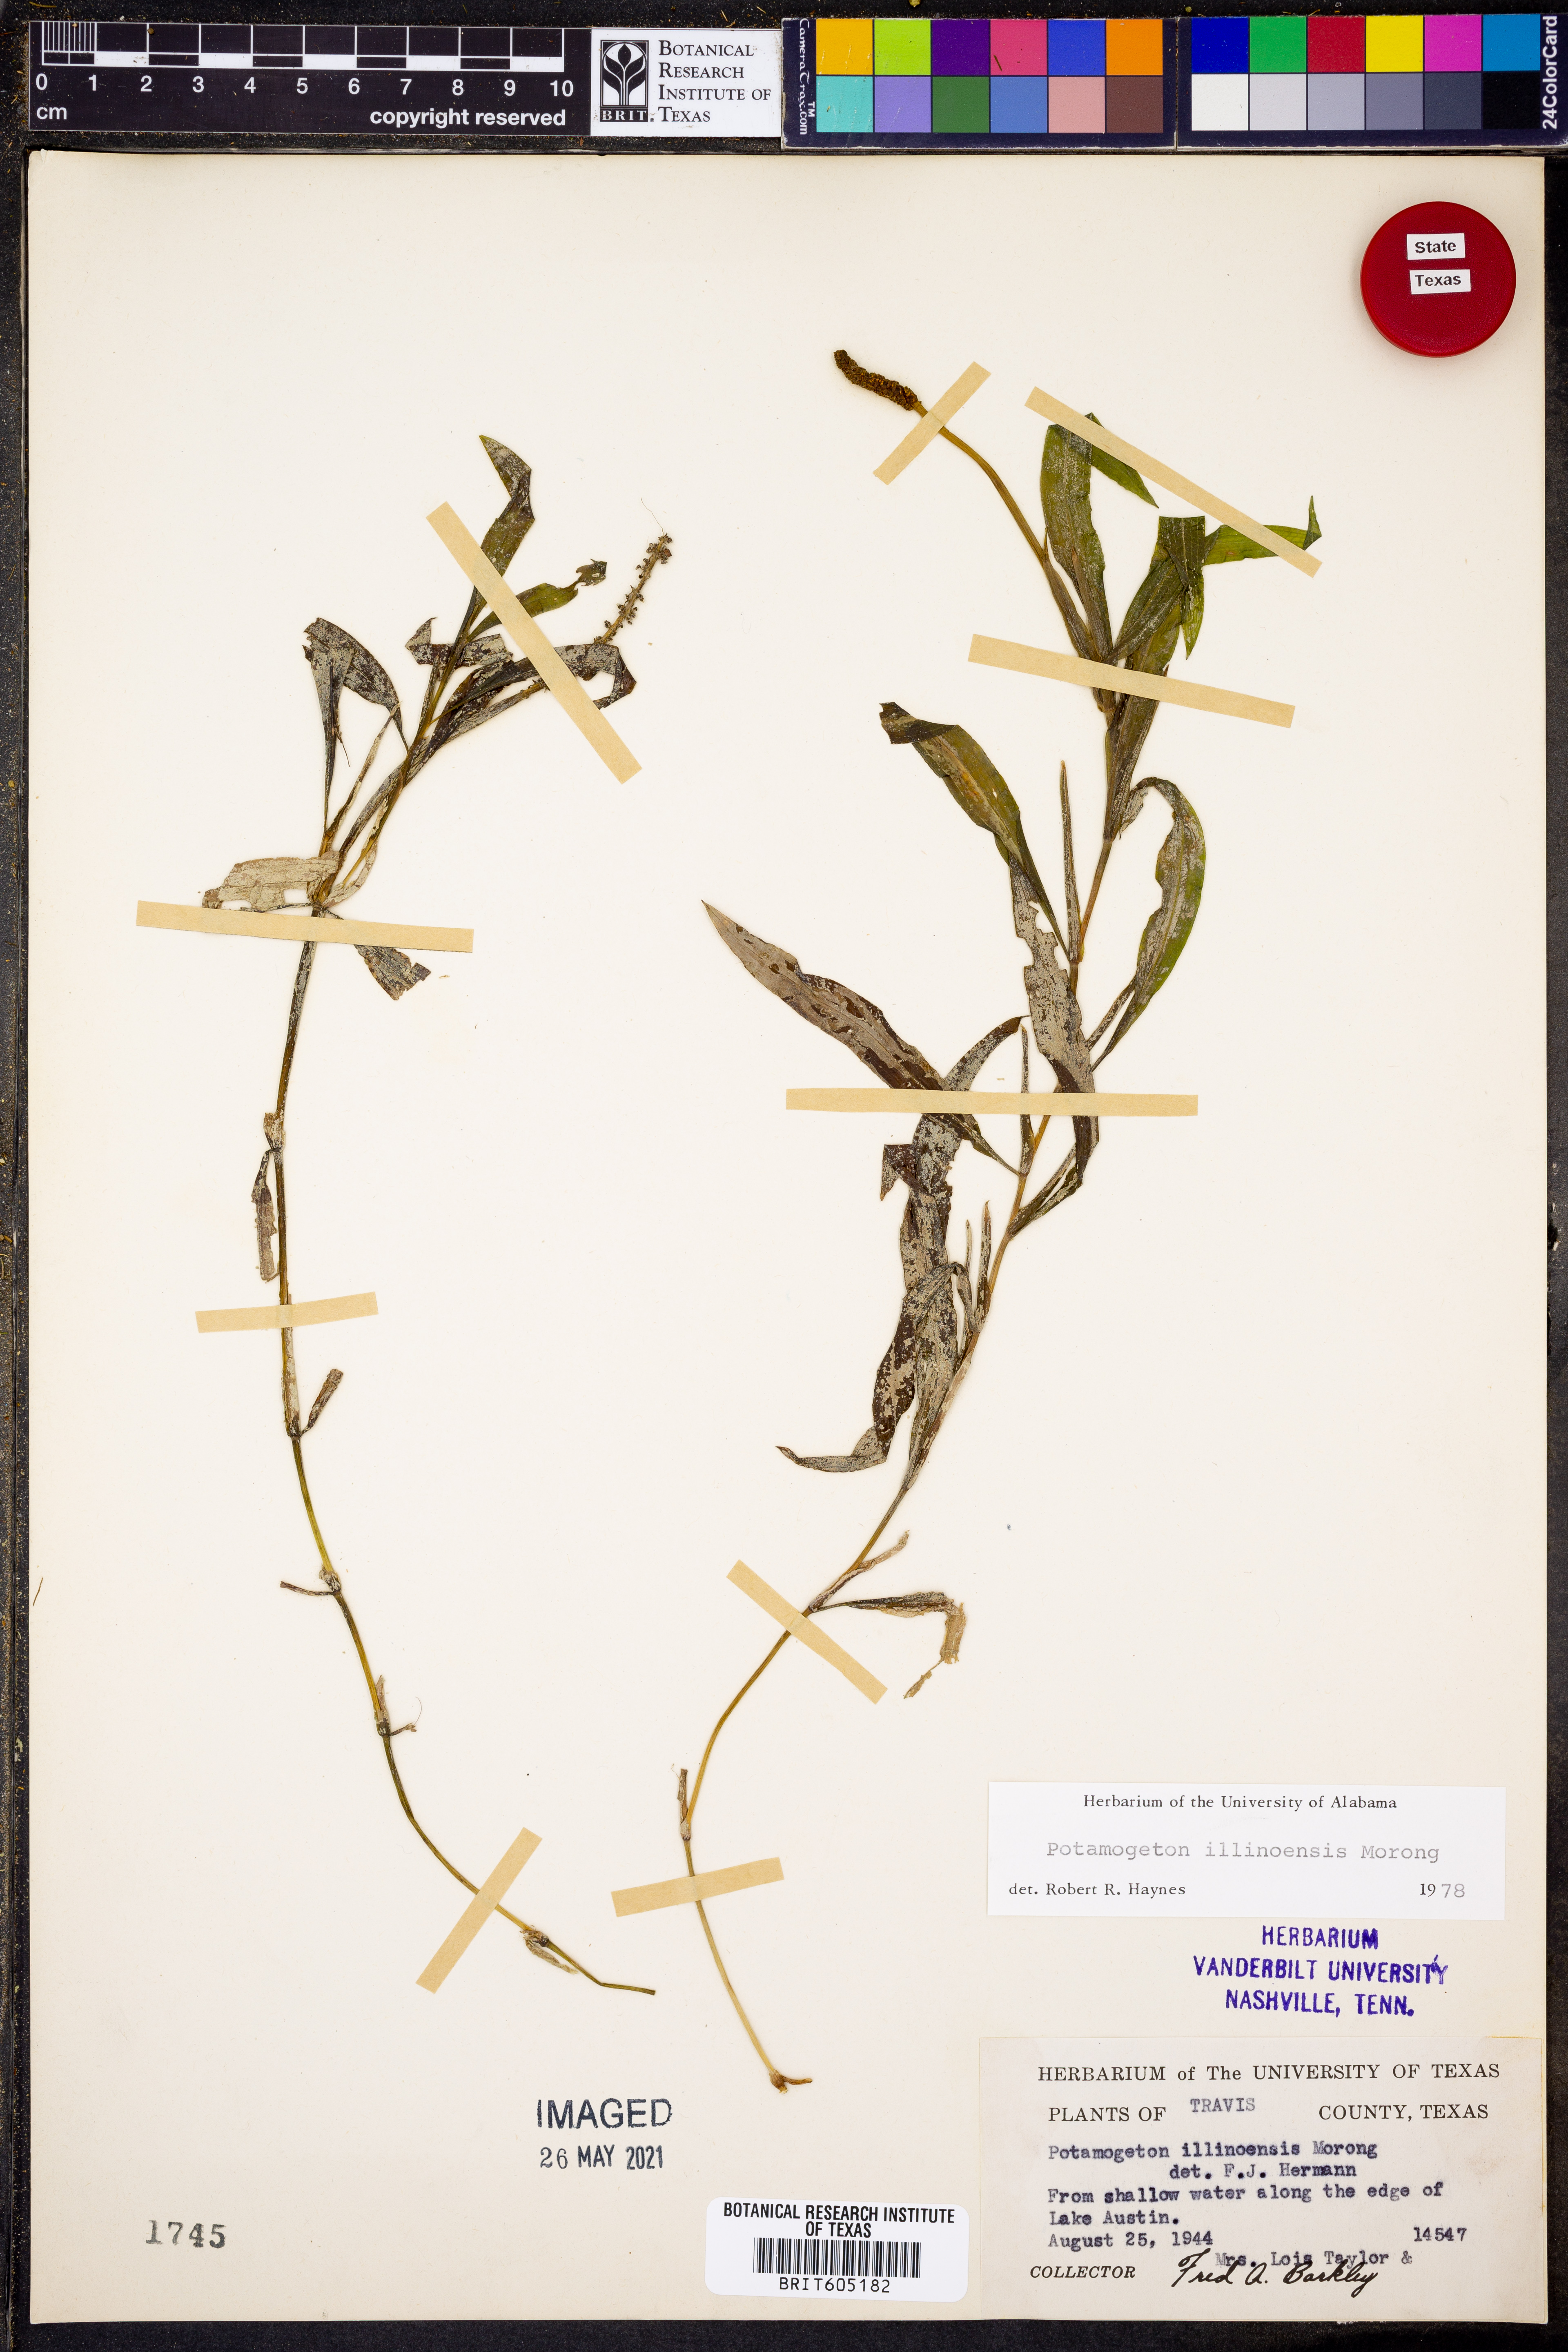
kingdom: Plantae
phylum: Tracheophyta
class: Liliopsida
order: Alismatales
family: Potamogetonaceae
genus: Potamogeton
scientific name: Potamogeton illinoensis
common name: Illinois pondweed
